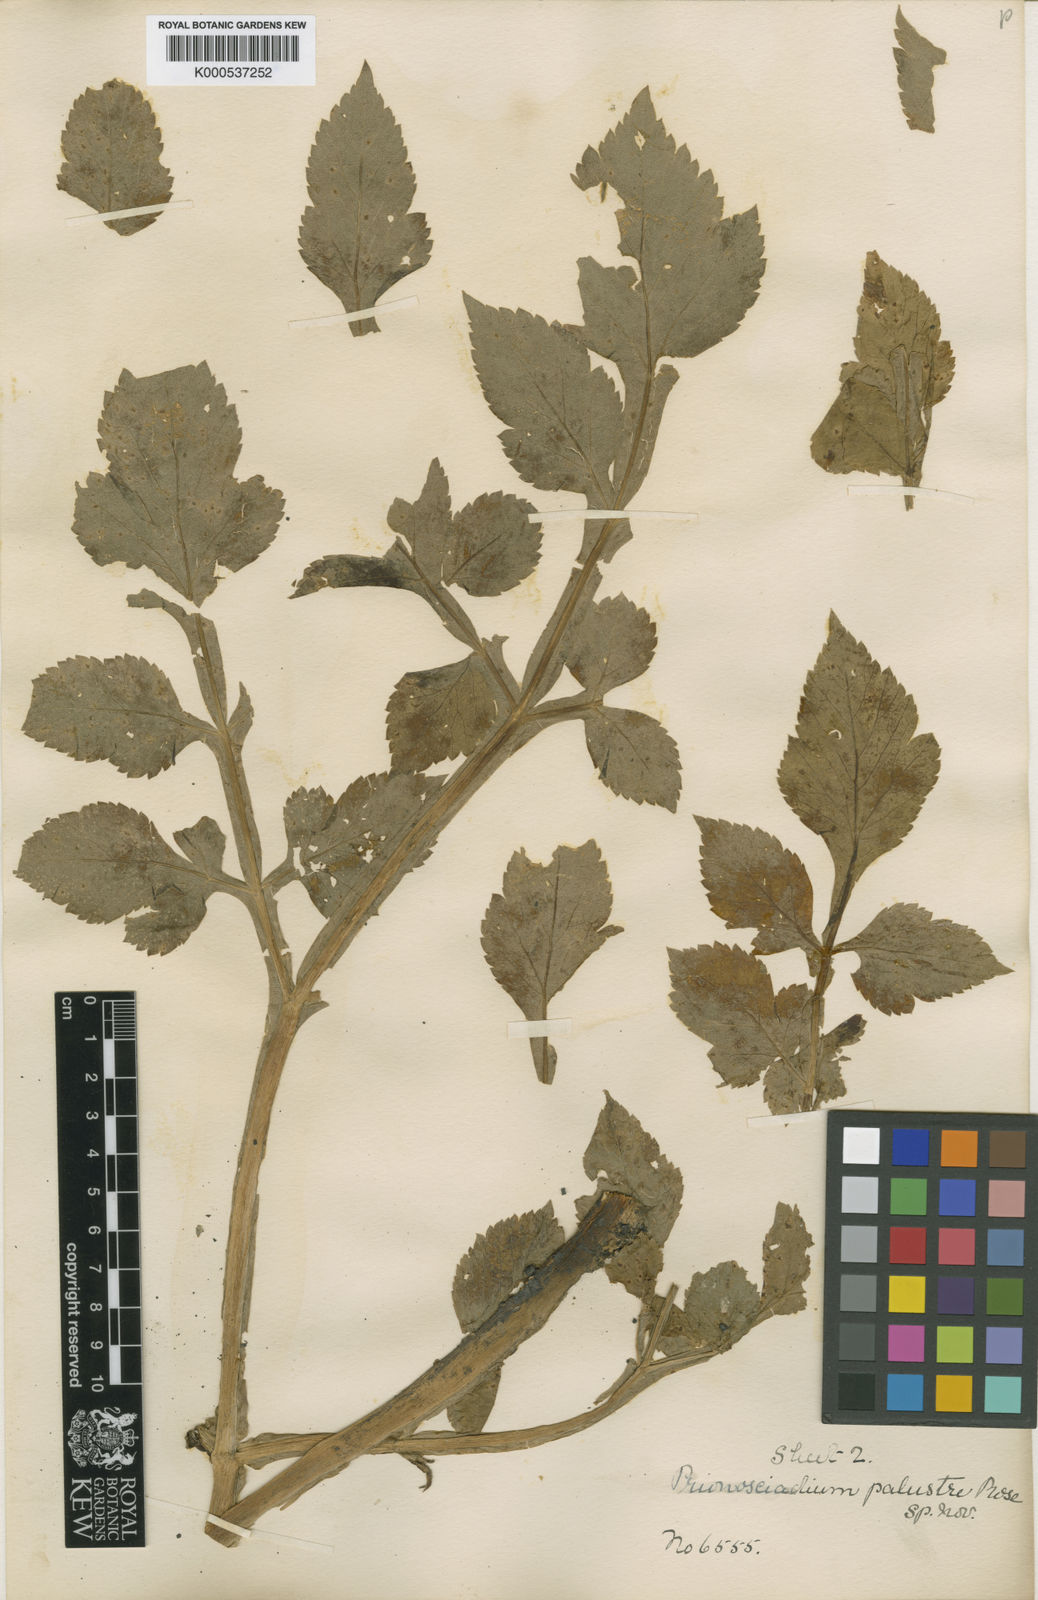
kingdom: Plantae
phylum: Tracheophyta
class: Magnoliopsida
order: Apiales
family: Apiaceae
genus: Prionosciadium
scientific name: Prionosciadium diversifolium
